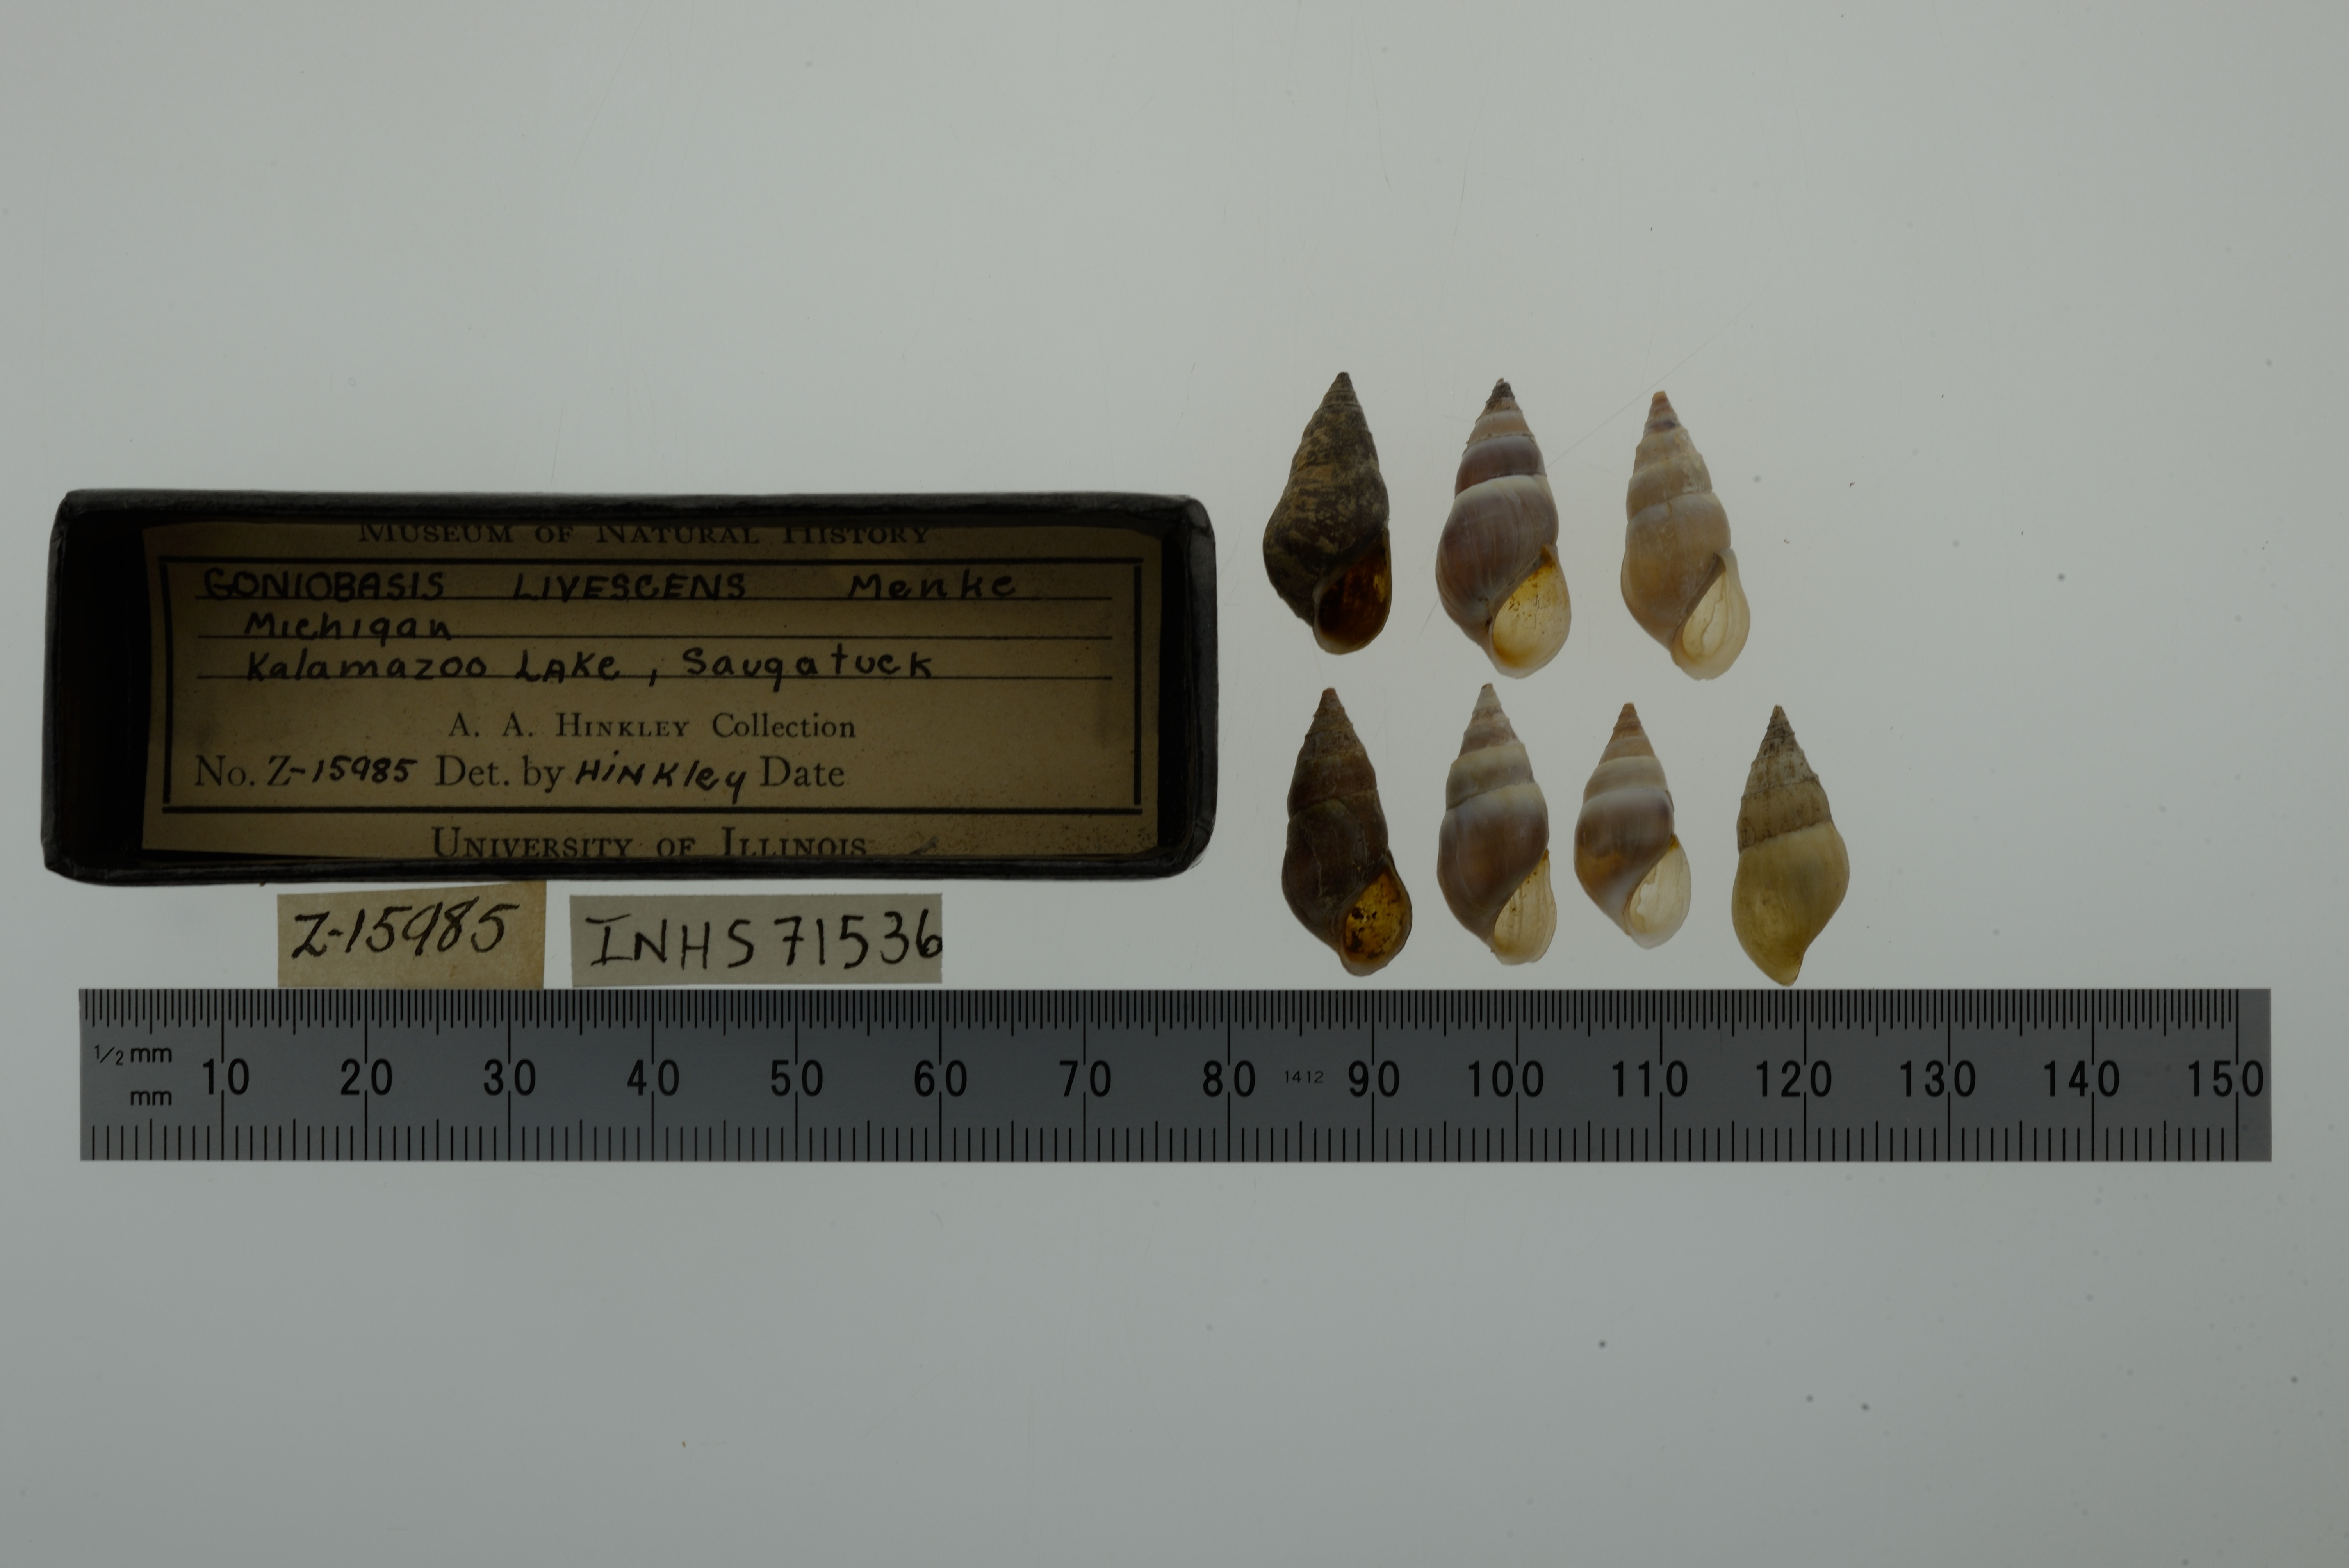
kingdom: Animalia
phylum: Mollusca
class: Gastropoda
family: Pleuroceridae
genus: Elimia
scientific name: Elimia livescens
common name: Liver elimia
